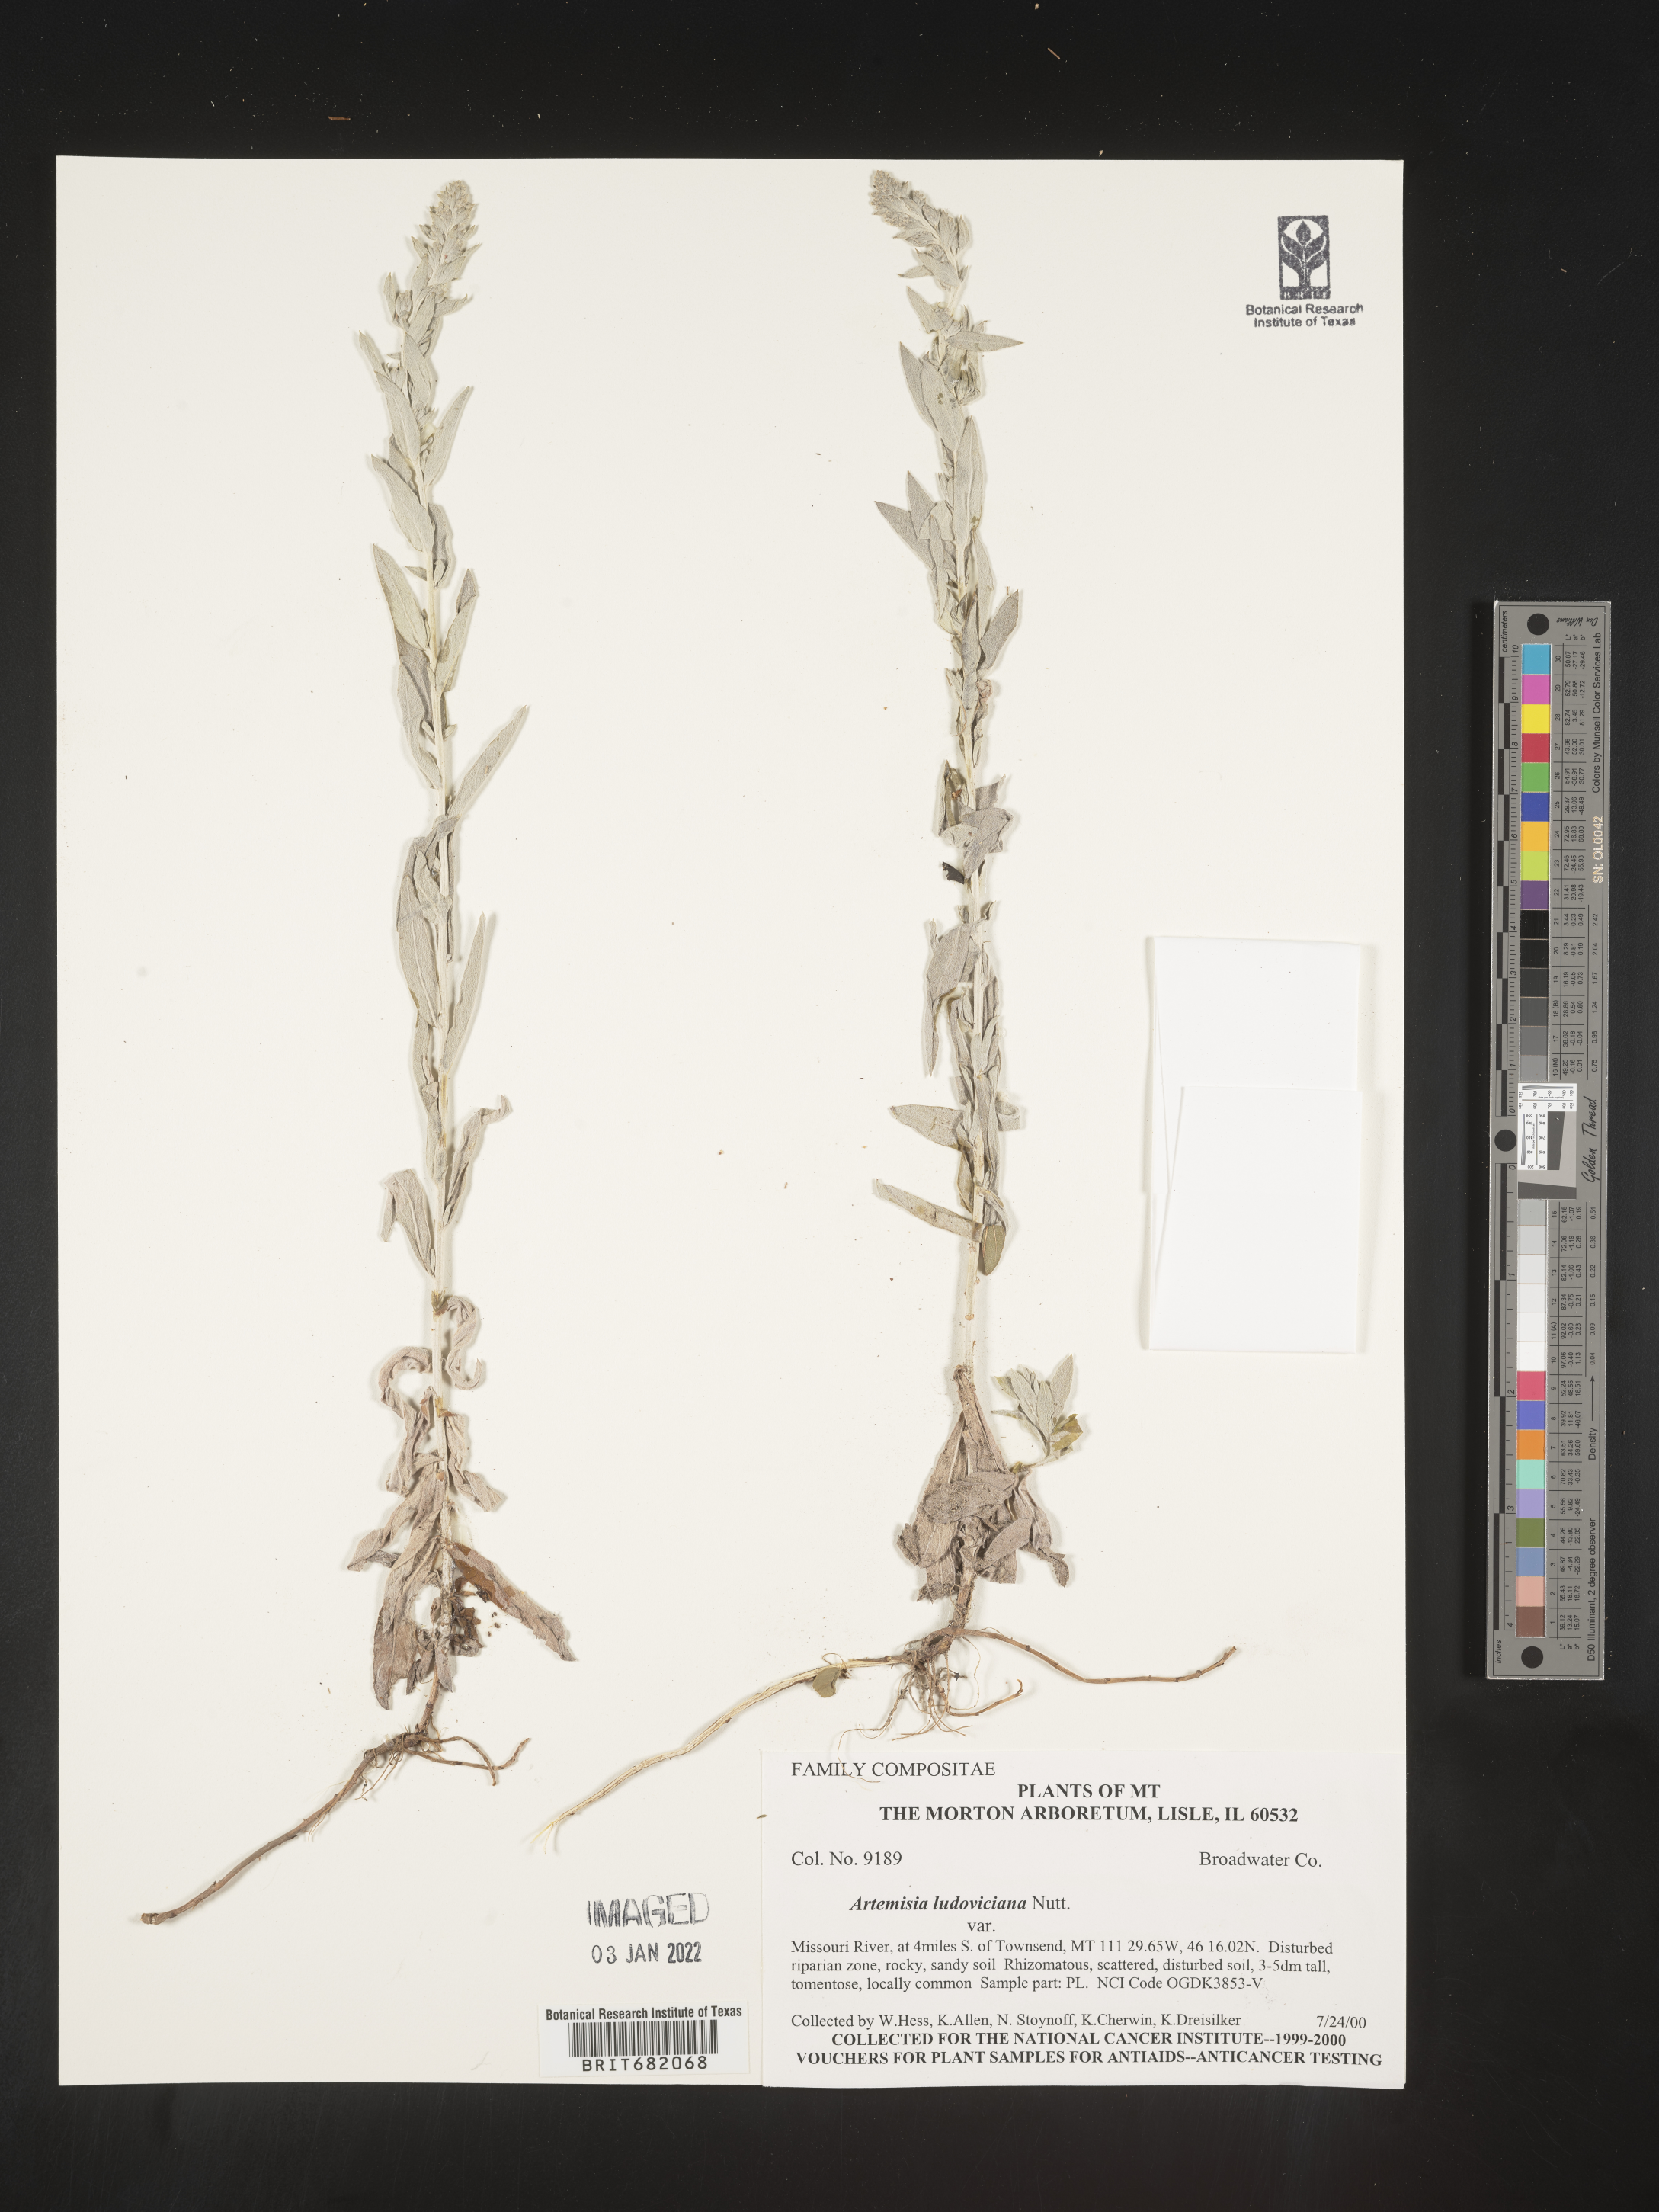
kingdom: Plantae
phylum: Tracheophyta
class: Magnoliopsida
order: Asterales
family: Asteraceae
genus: Artemisia
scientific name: Artemisia ludoviciana
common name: Western mugwort
